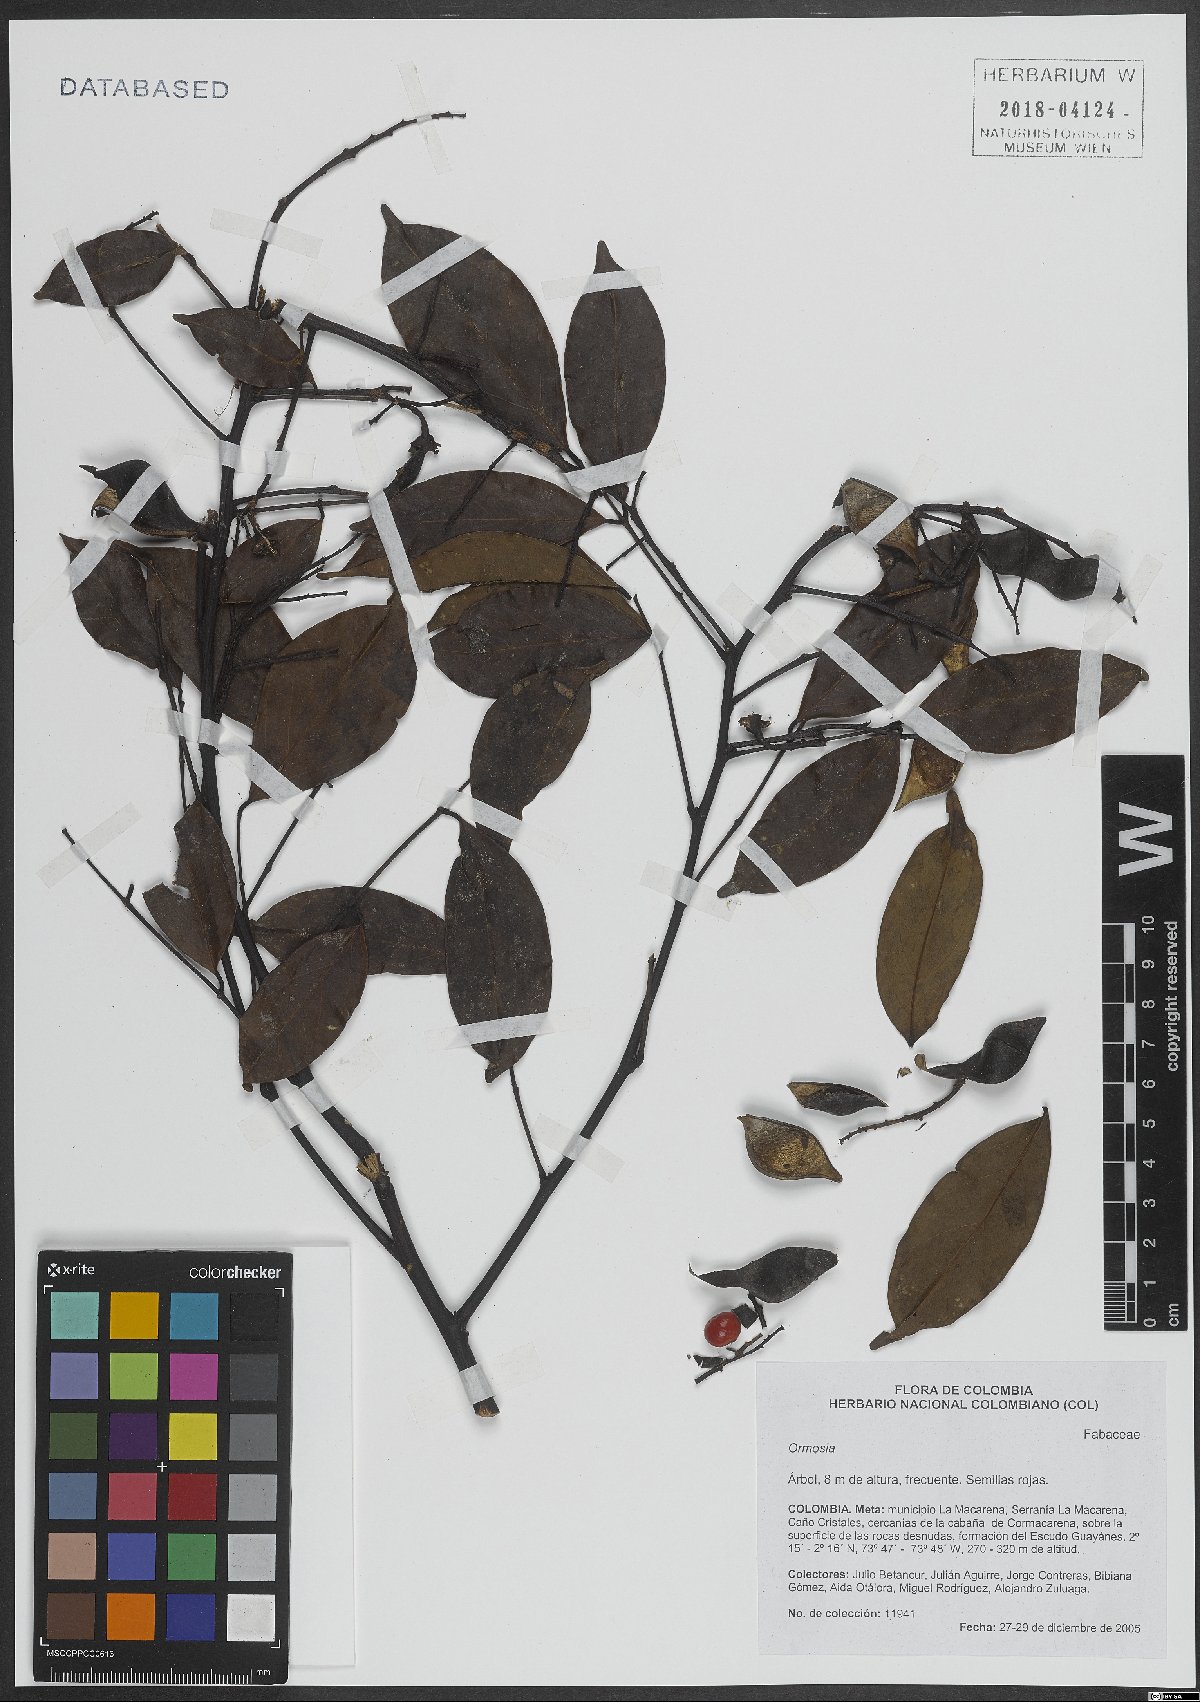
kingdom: Plantae
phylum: Tracheophyta
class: Magnoliopsida
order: Fabales
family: Fabaceae
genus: Ormosia
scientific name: Ormosia
